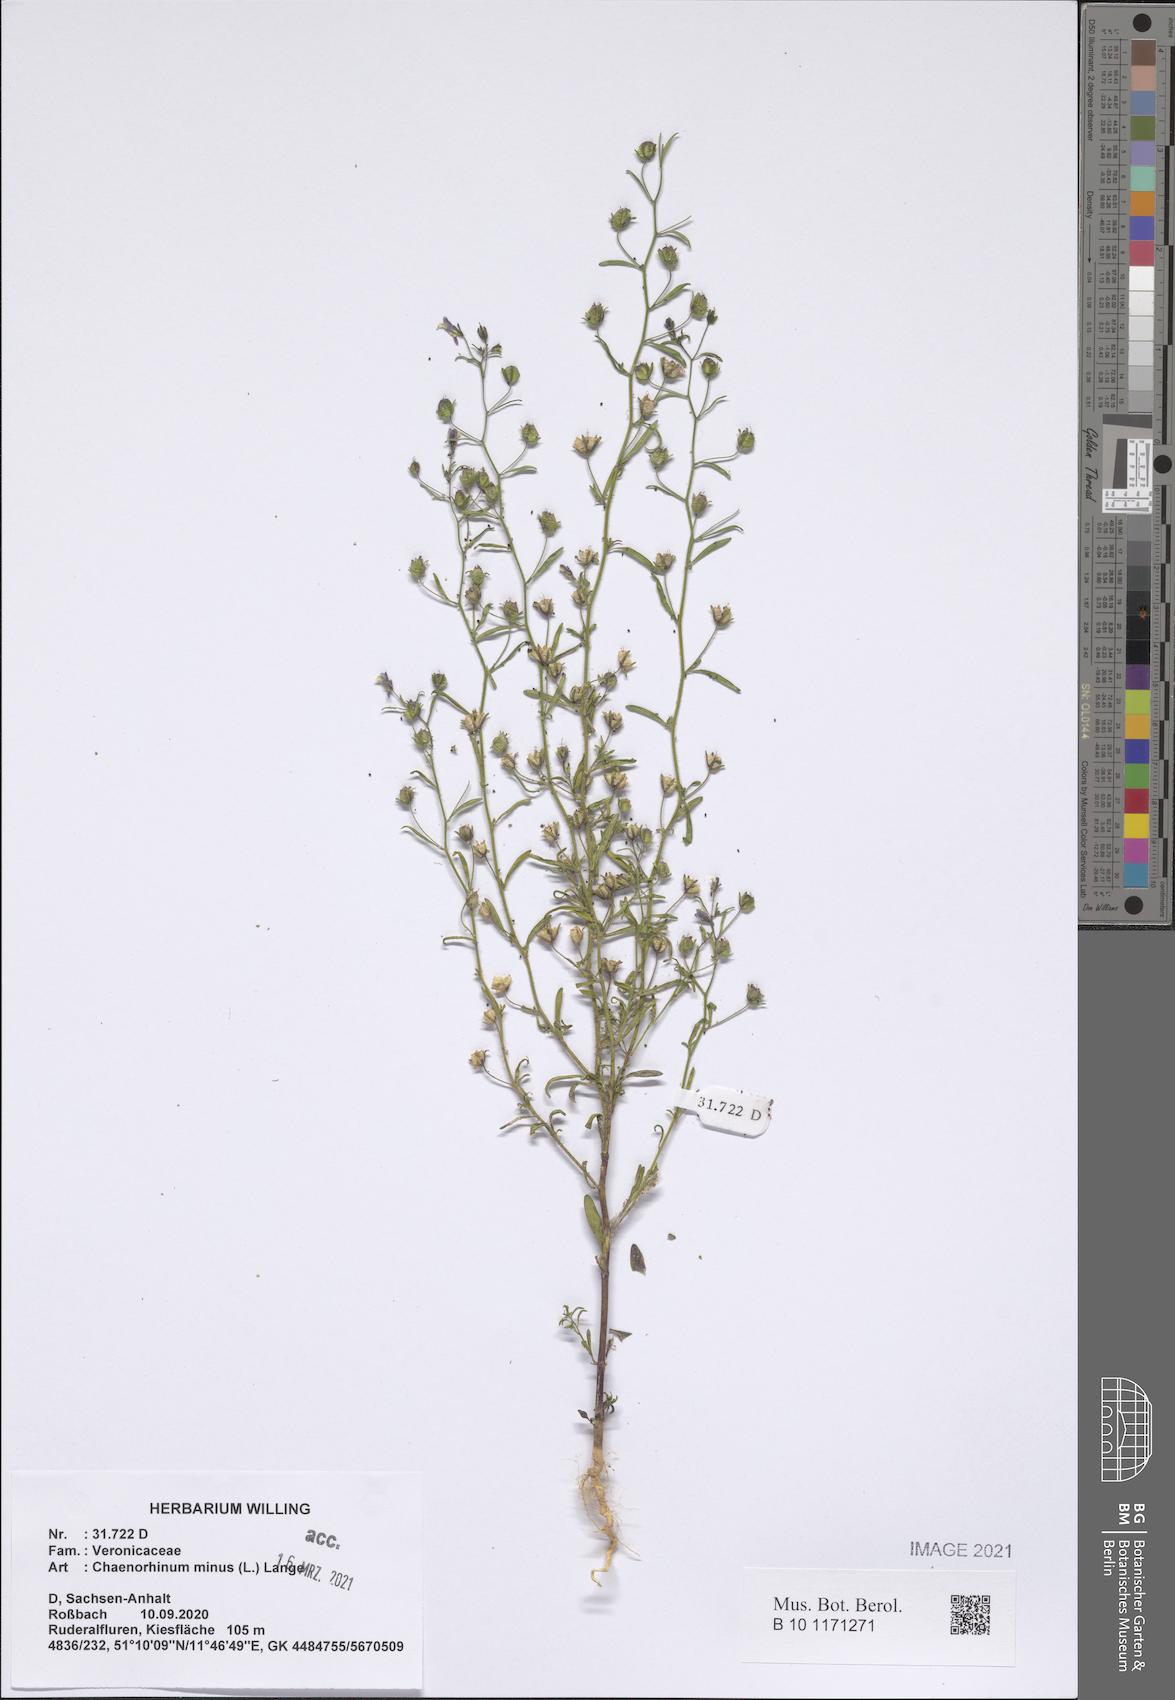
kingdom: Plantae
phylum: Tracheophyta
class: Magnoliopsida
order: Lamiales
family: Plantaginaceae
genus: Chaenorhinum
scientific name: Chaenorhinum minus
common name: Dwarf snapdragon
